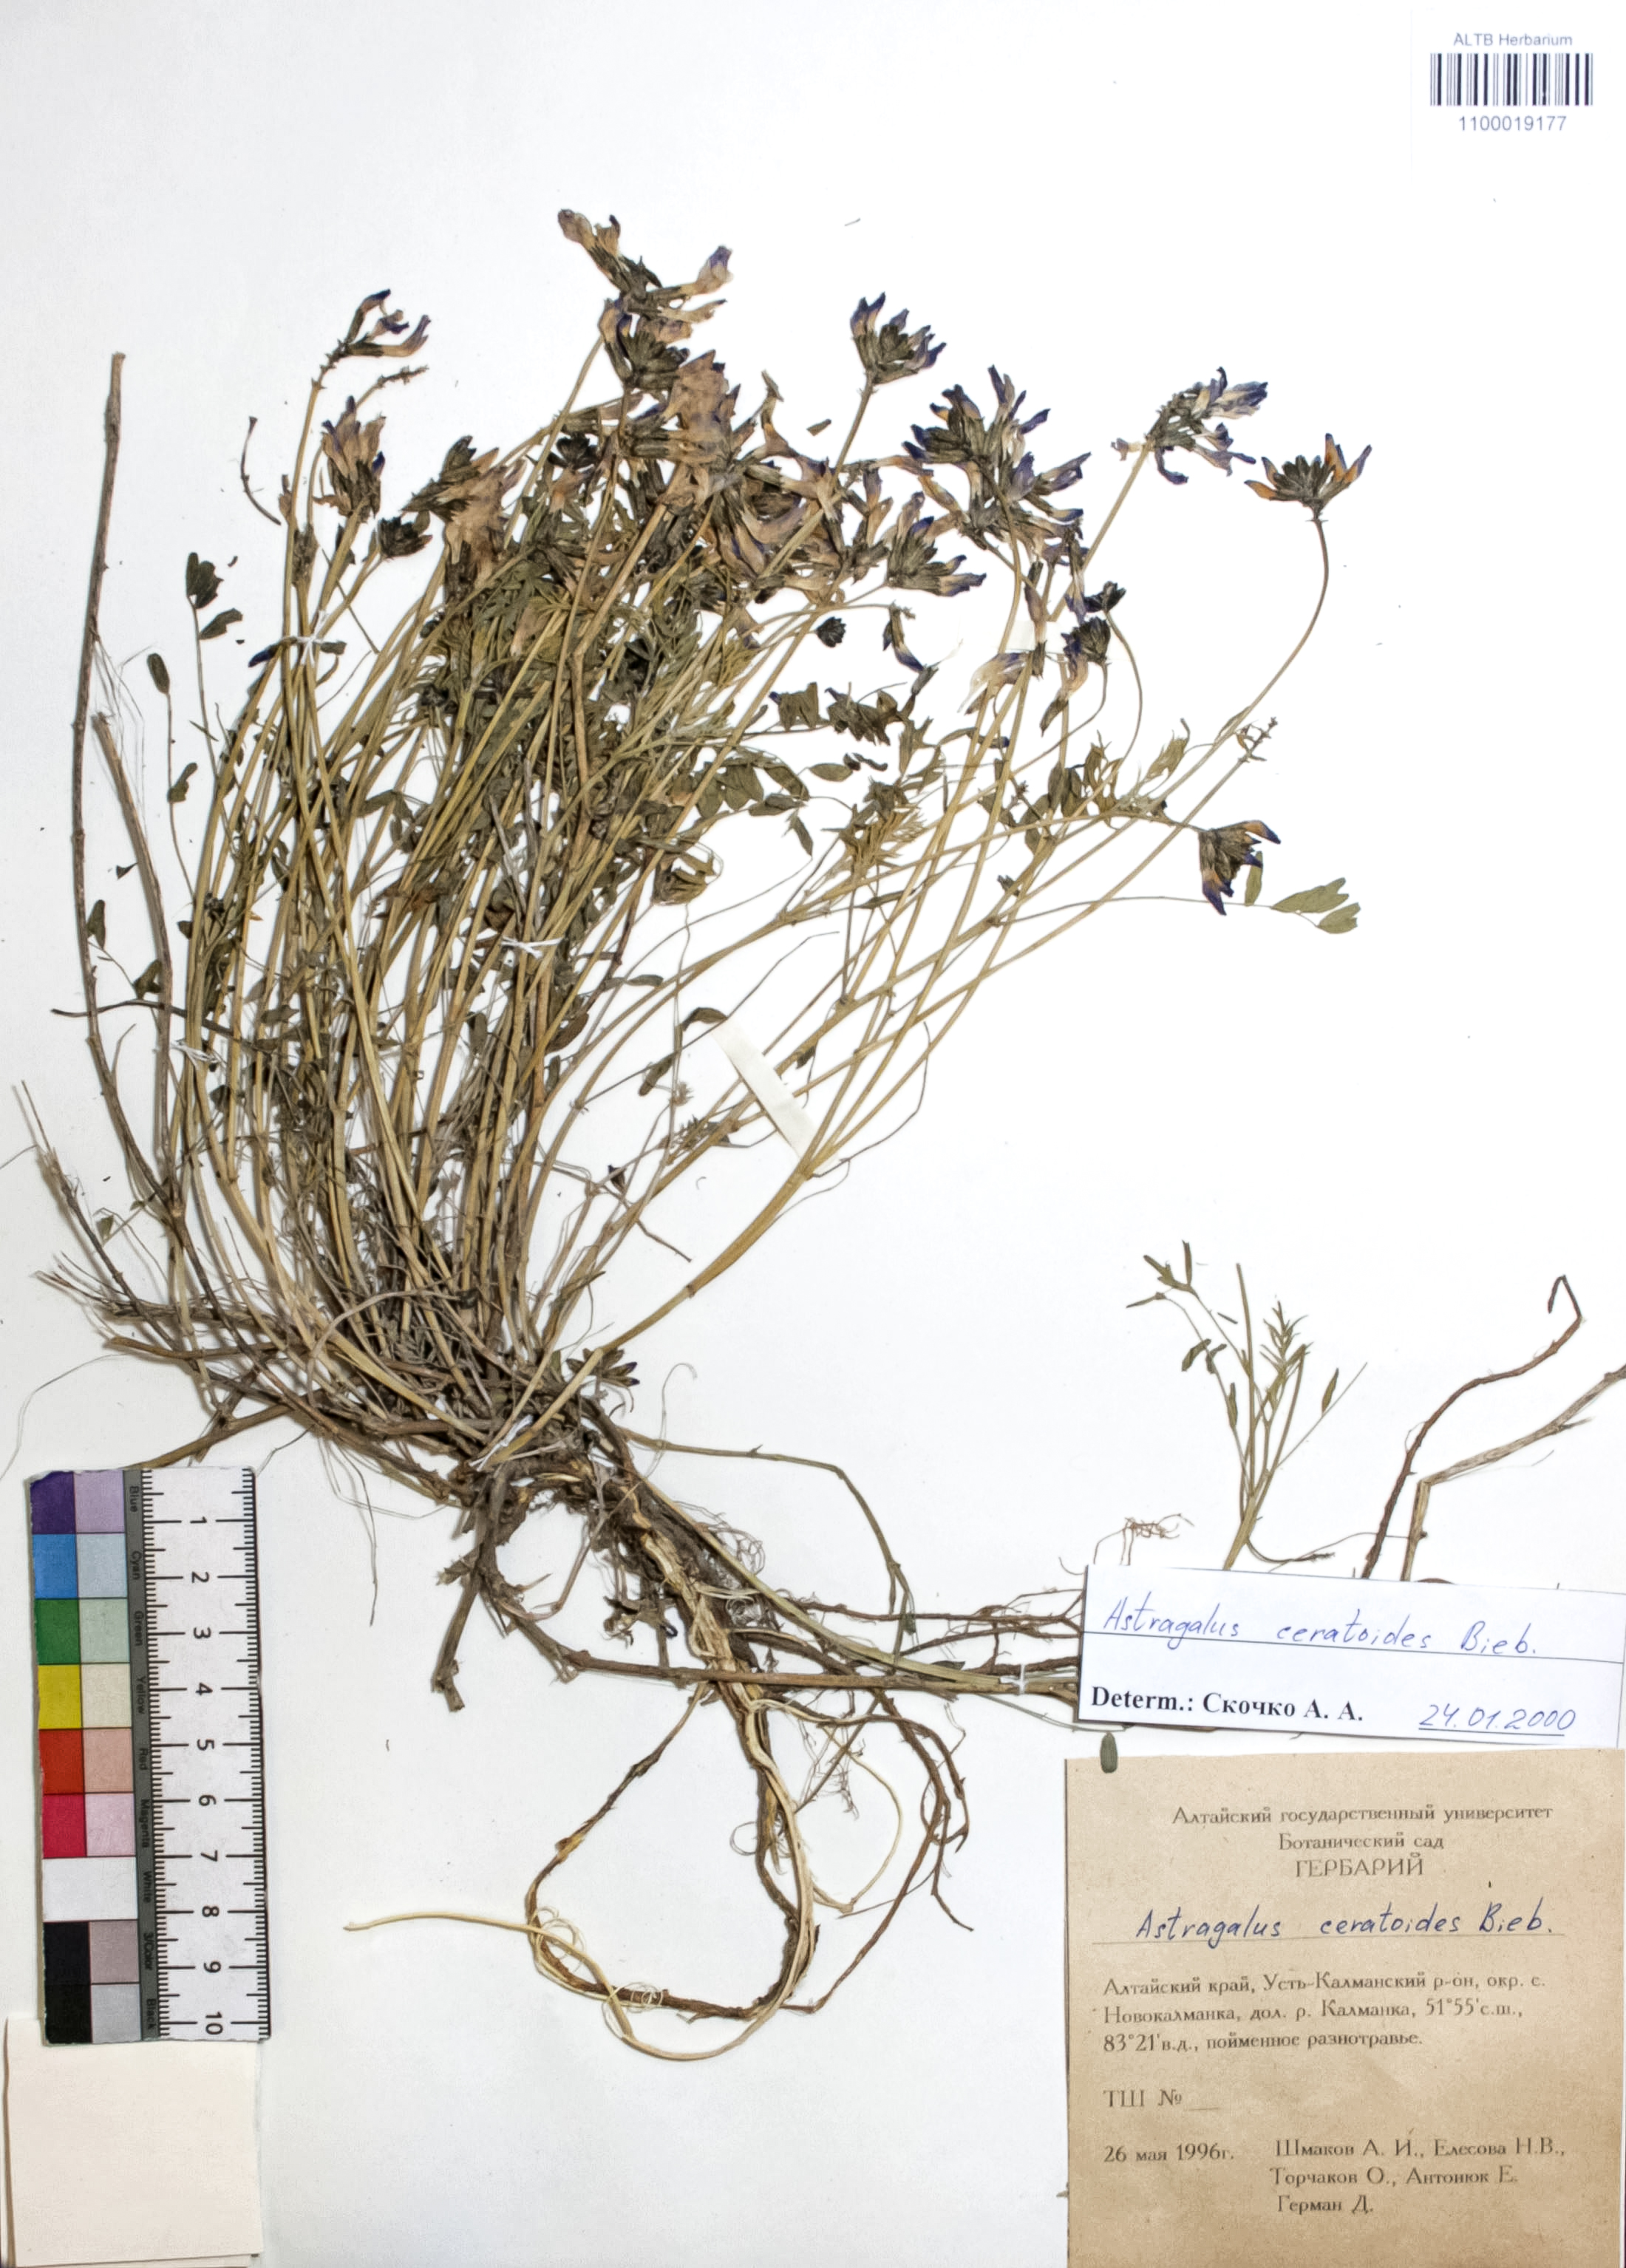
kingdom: Plantae
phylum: Tracheophyta
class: Magnoliopsida
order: Fabales
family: Fabaceae
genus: Astragalus
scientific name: Astragalus ceratoides
